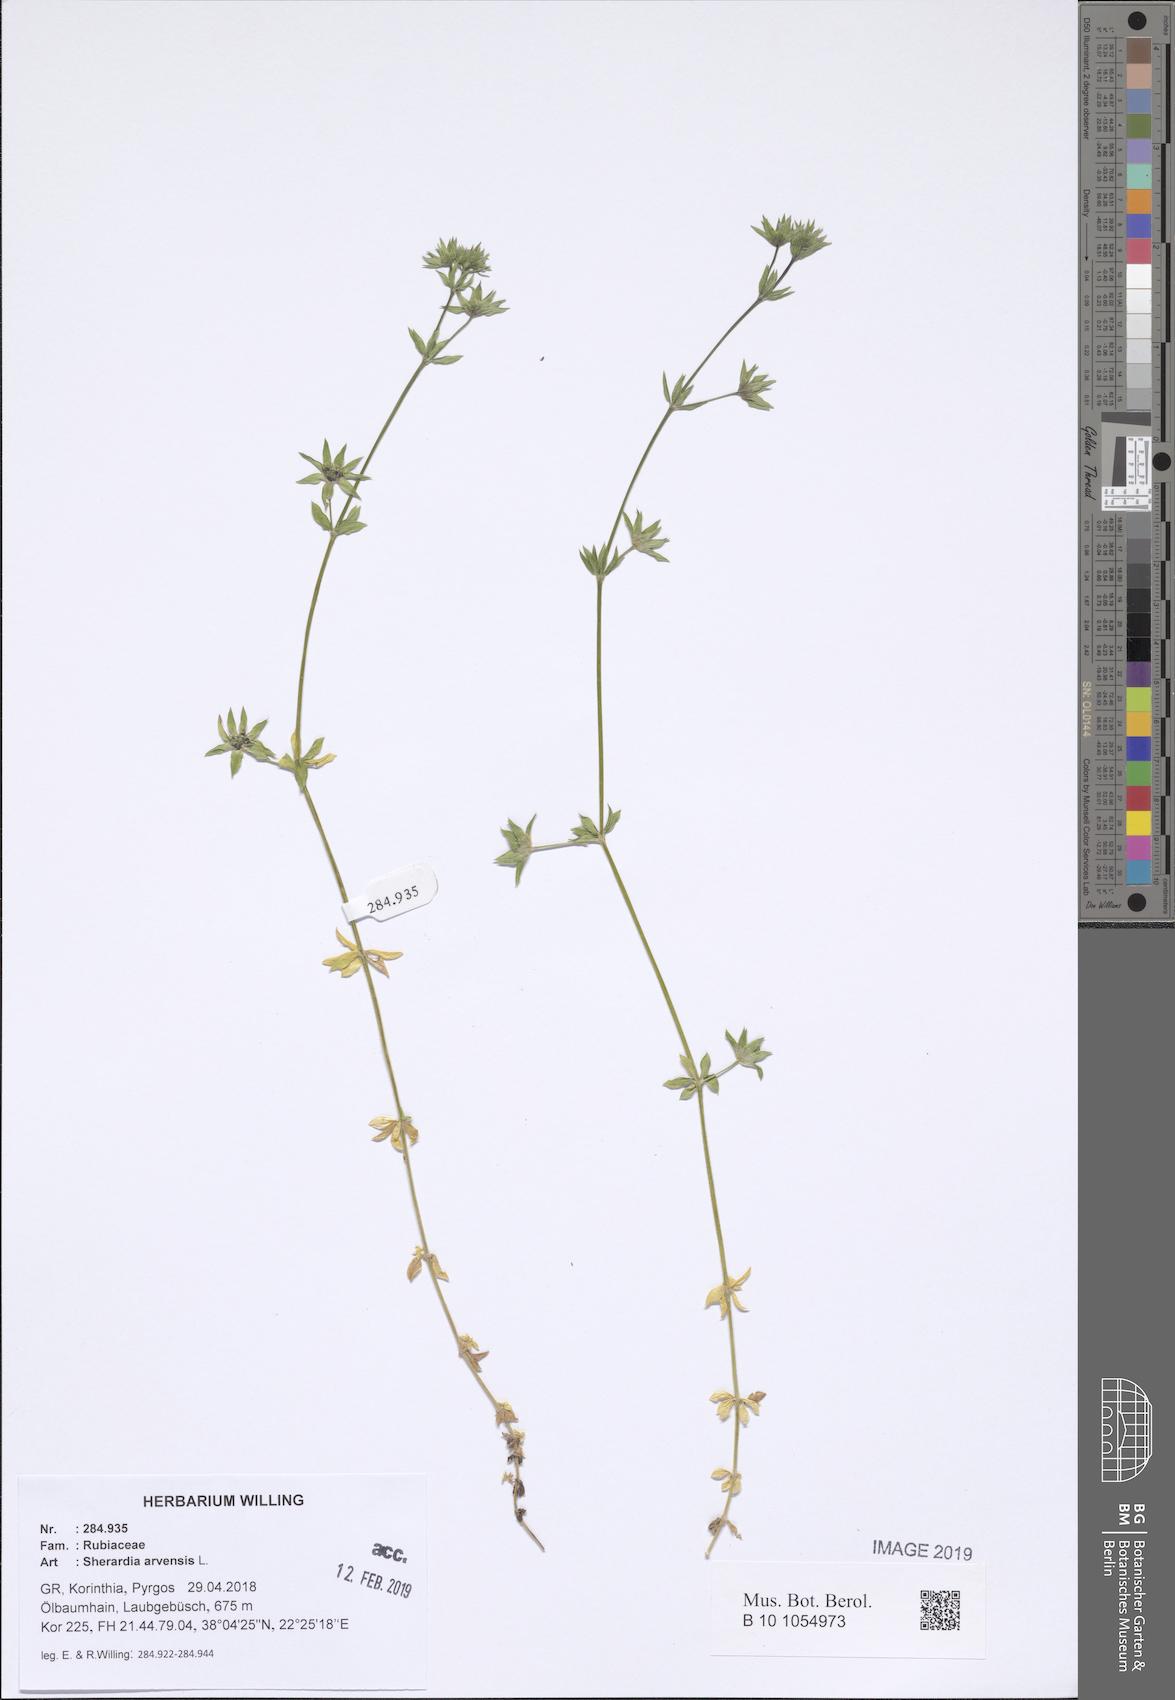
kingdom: Plantae
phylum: Tracheophyta
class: Magnoliopsida
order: Gentianales
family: Rubiaceae
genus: Sherardia
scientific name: Sherardia arvensis
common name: Field madder
